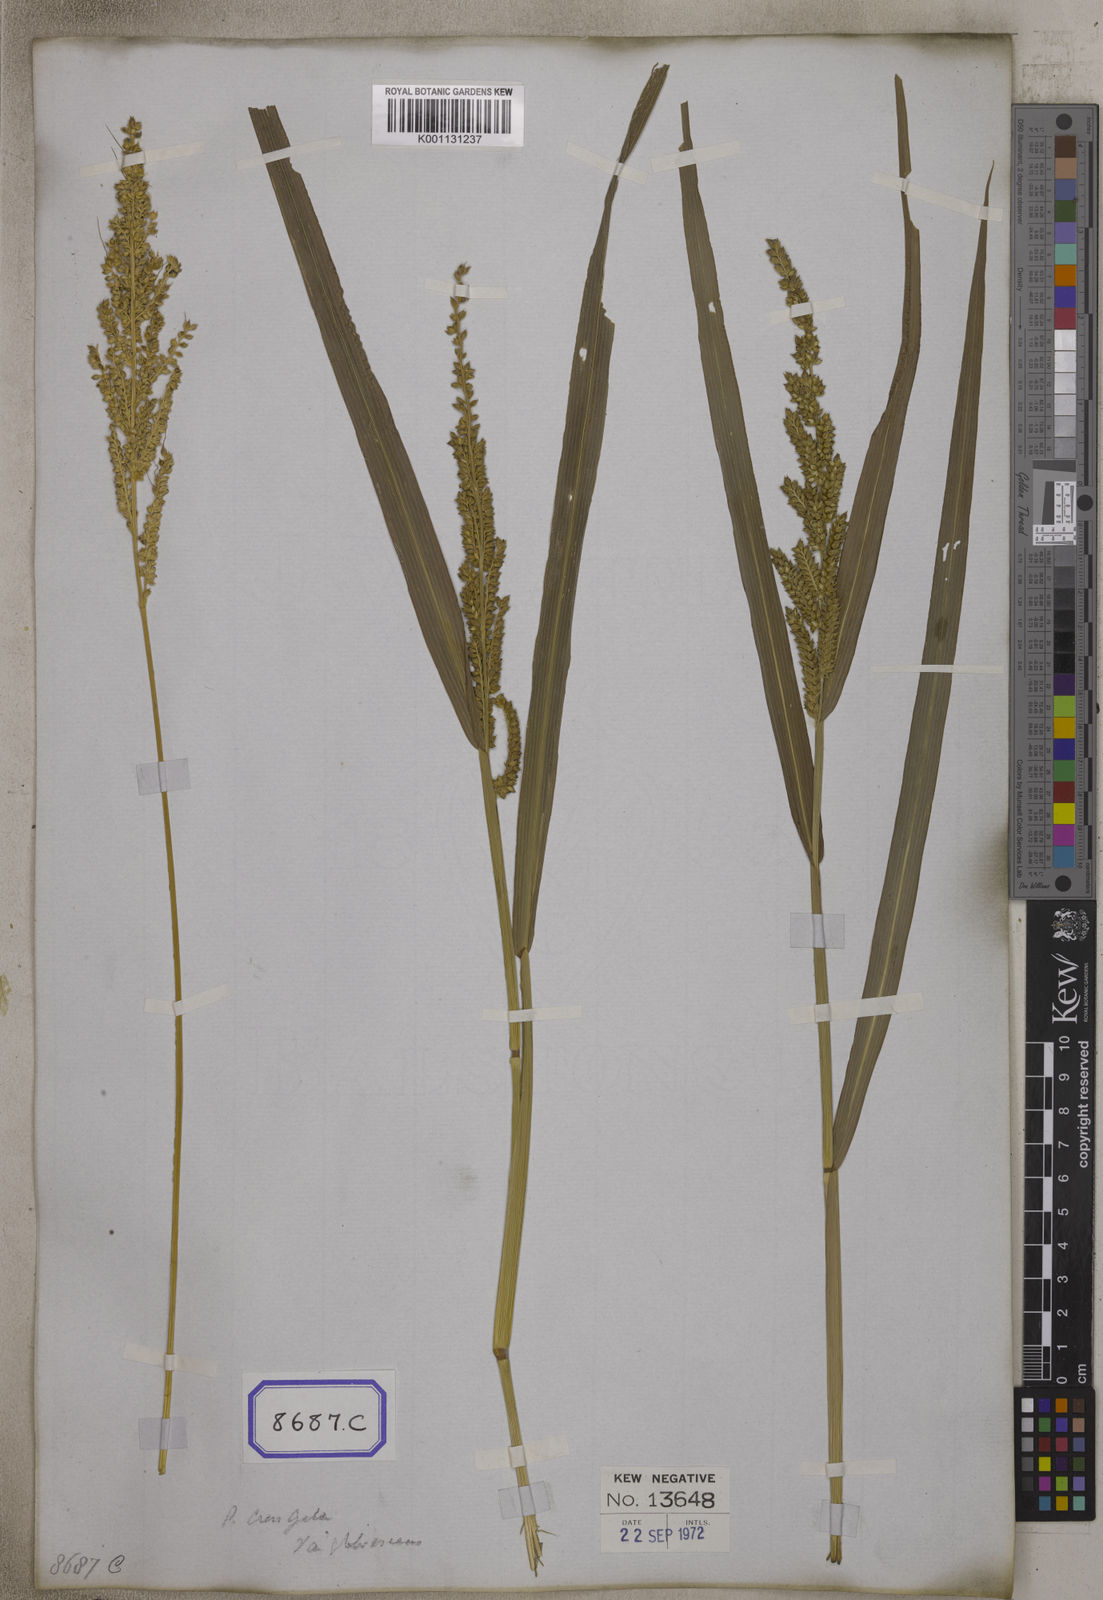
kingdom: Plantae
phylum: Tracheophyta
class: Liliopsida
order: Poales
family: Poaceae
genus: Echinochloa
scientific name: Echinochloa crus-galli
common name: Cockspur
